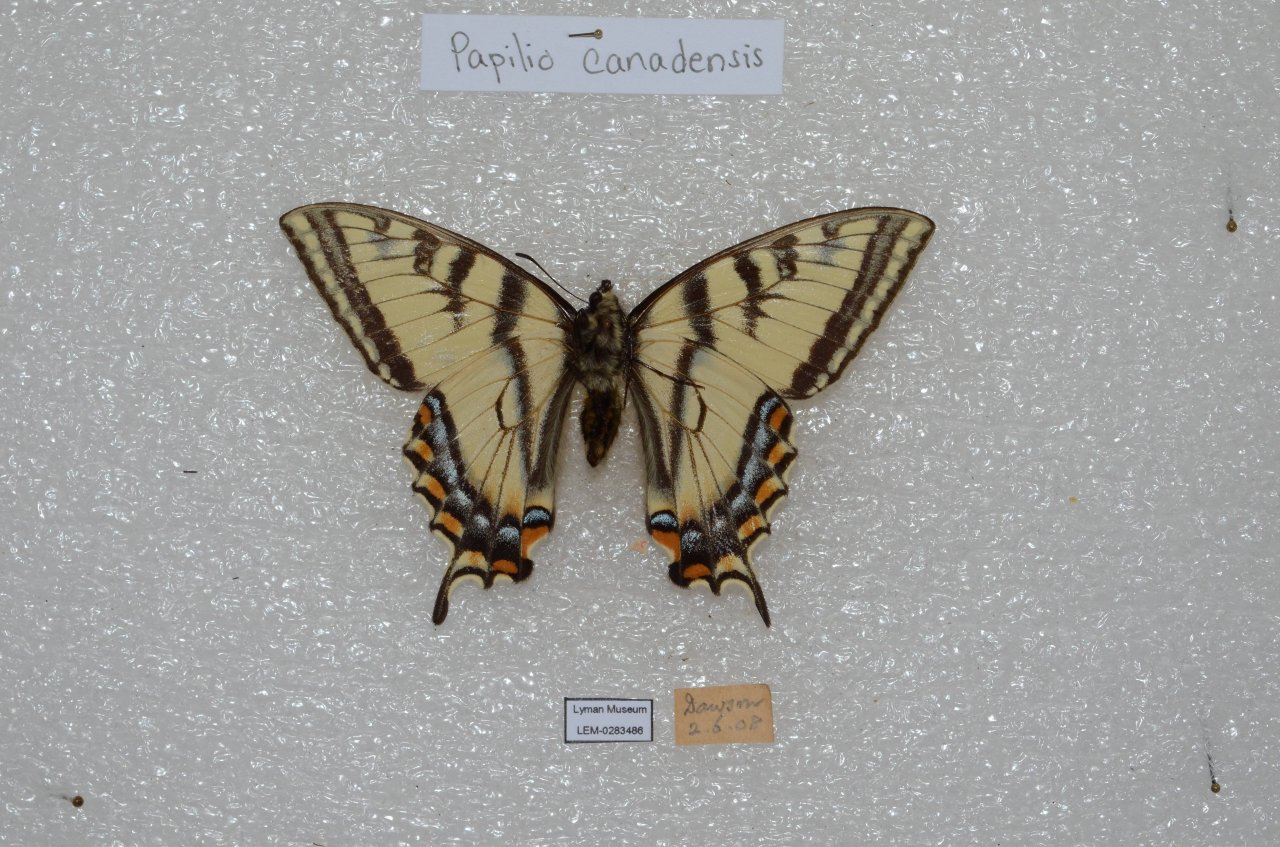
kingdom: Animalia
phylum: Arthropoda
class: Insecta
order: Lepidoptera
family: Papilionidae
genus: Pterourus
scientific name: Pterourus canadensis
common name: Canadian Tiger Swallowtail
